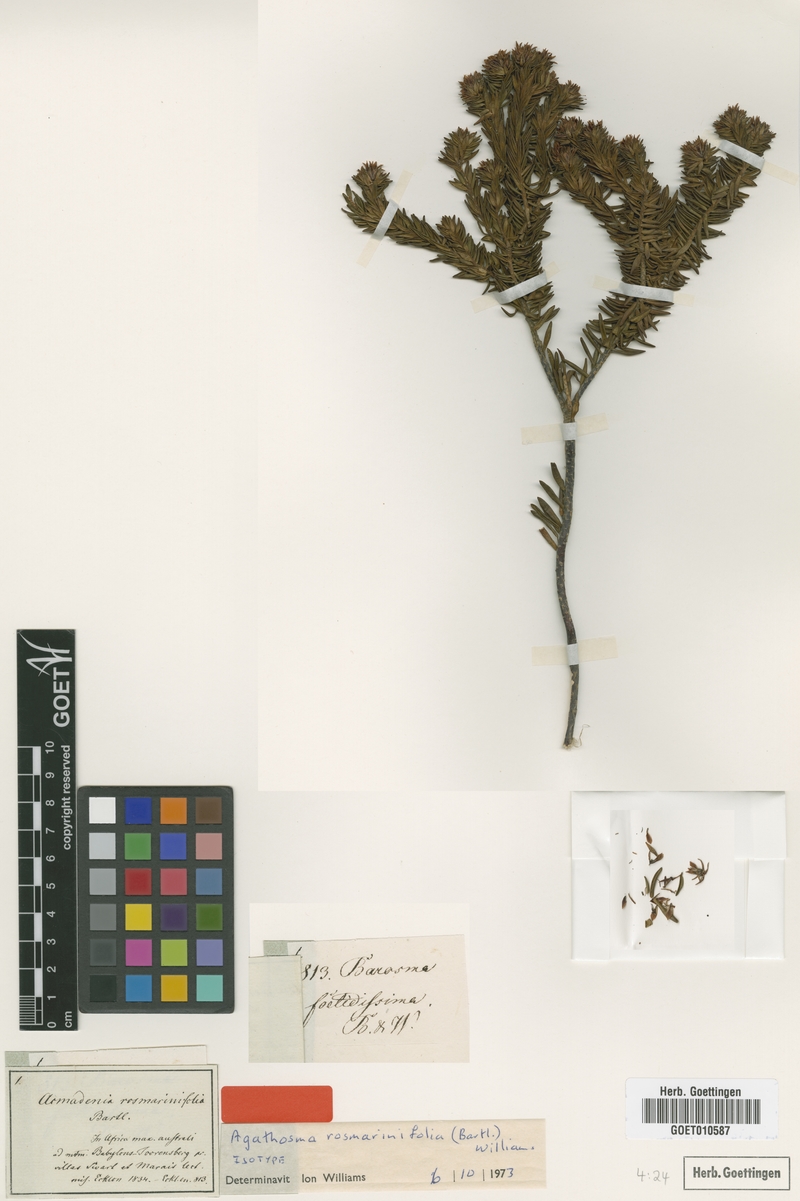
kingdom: Plantae
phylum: Tracheophyta
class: Magnoliopsida
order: Sapindales
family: Rutaceae
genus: Agathosma
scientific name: Agathosma rosmarinifolia
